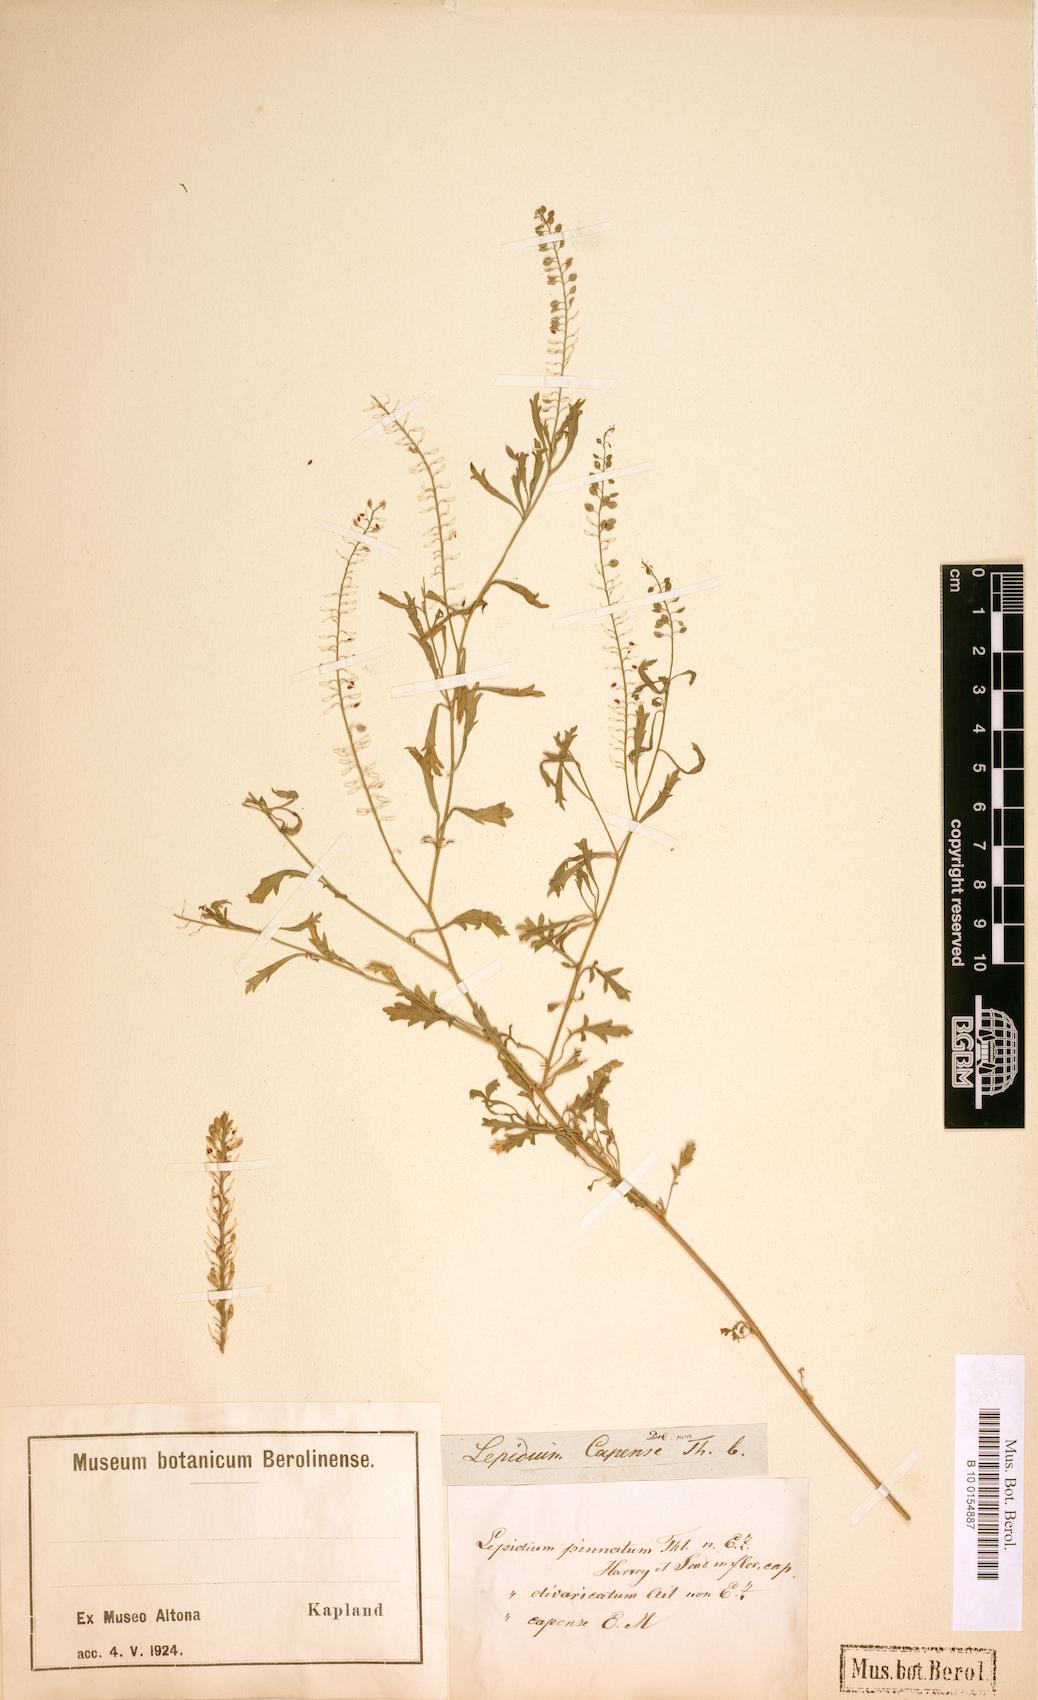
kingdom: Plantae
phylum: Tracheophyta
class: Magnoliopsida
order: Brassicales
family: Brassicaceae
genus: Lepidium
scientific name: Lepidium capense
